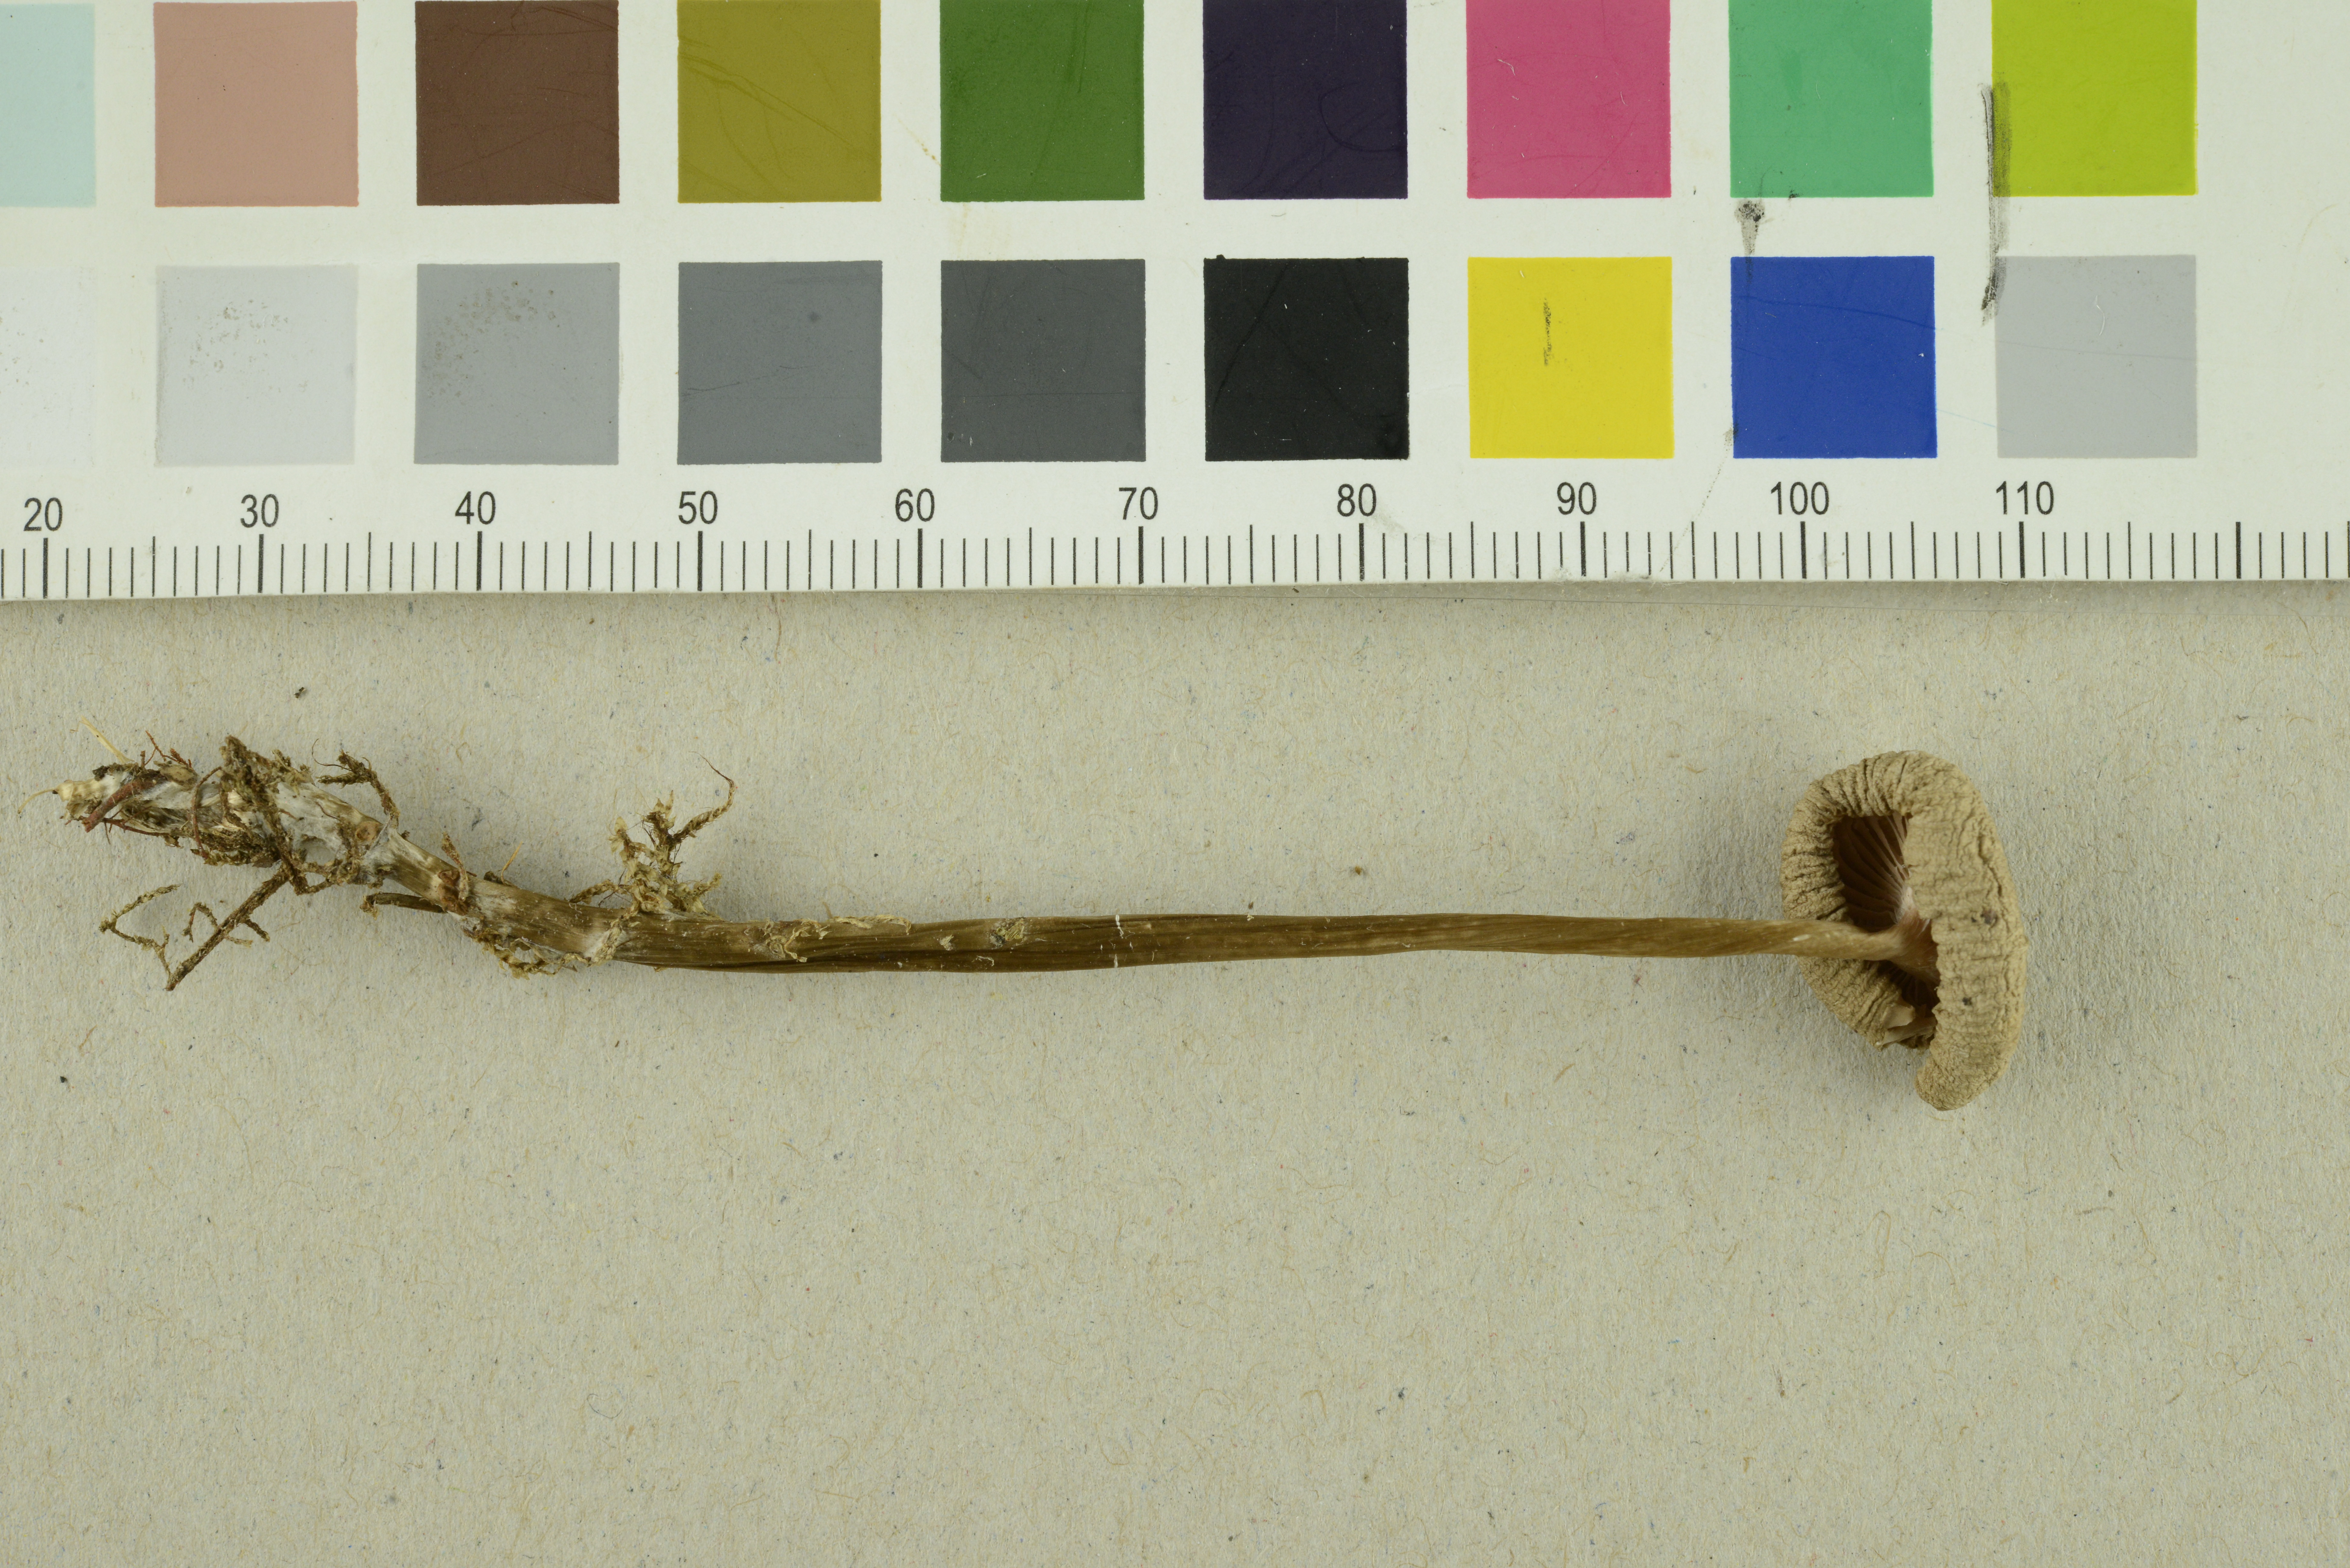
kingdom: Fungi
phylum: Basidiomycota
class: Agaricomycetes
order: Agaricales
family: Mycenaceae
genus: Mycena
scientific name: Mycena galericulata
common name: Bonnet mycena
